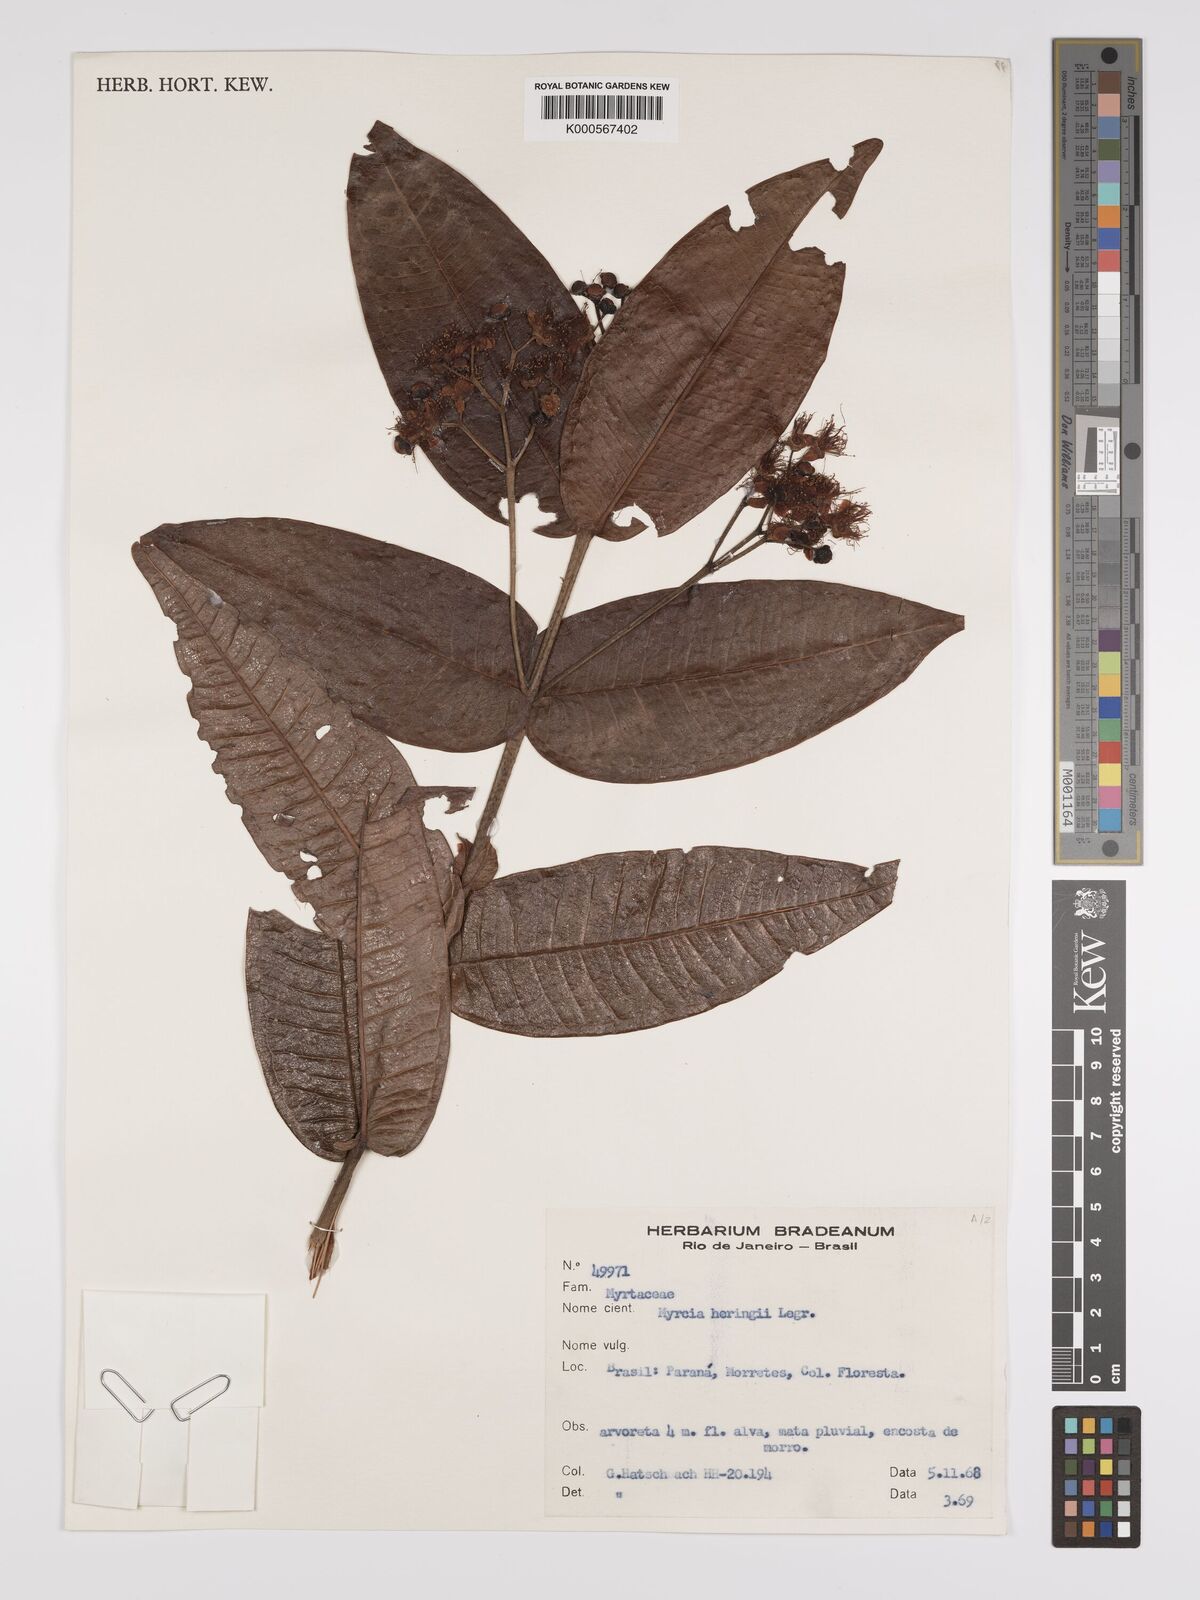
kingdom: Plantae
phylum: Tracheophyta
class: Magnoliopsida
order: Myrtales
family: Myrtaceae
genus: Myrcia
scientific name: Myrcia heringii
